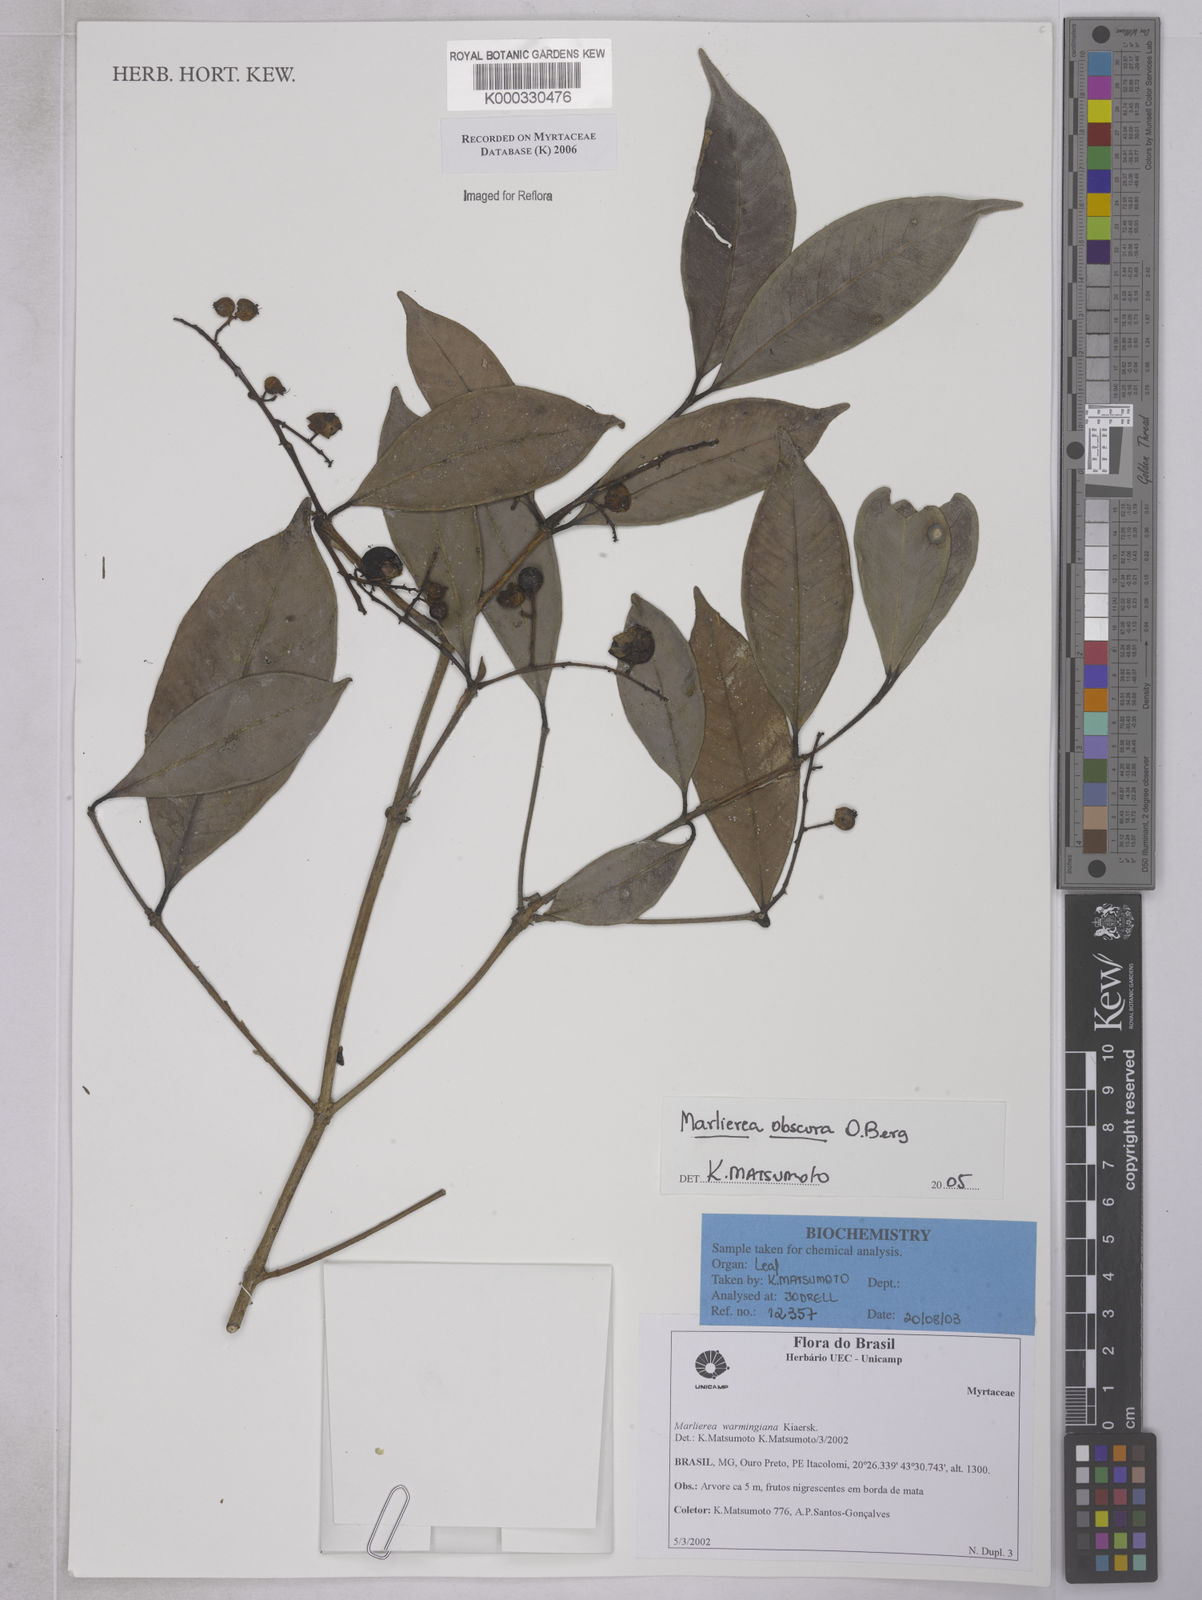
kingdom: Plantae
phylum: Tracheophyta
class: Magnoliopsida
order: Myrtales
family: Myrtaceae
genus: Myrcia
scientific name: Myrcia neoobscura
